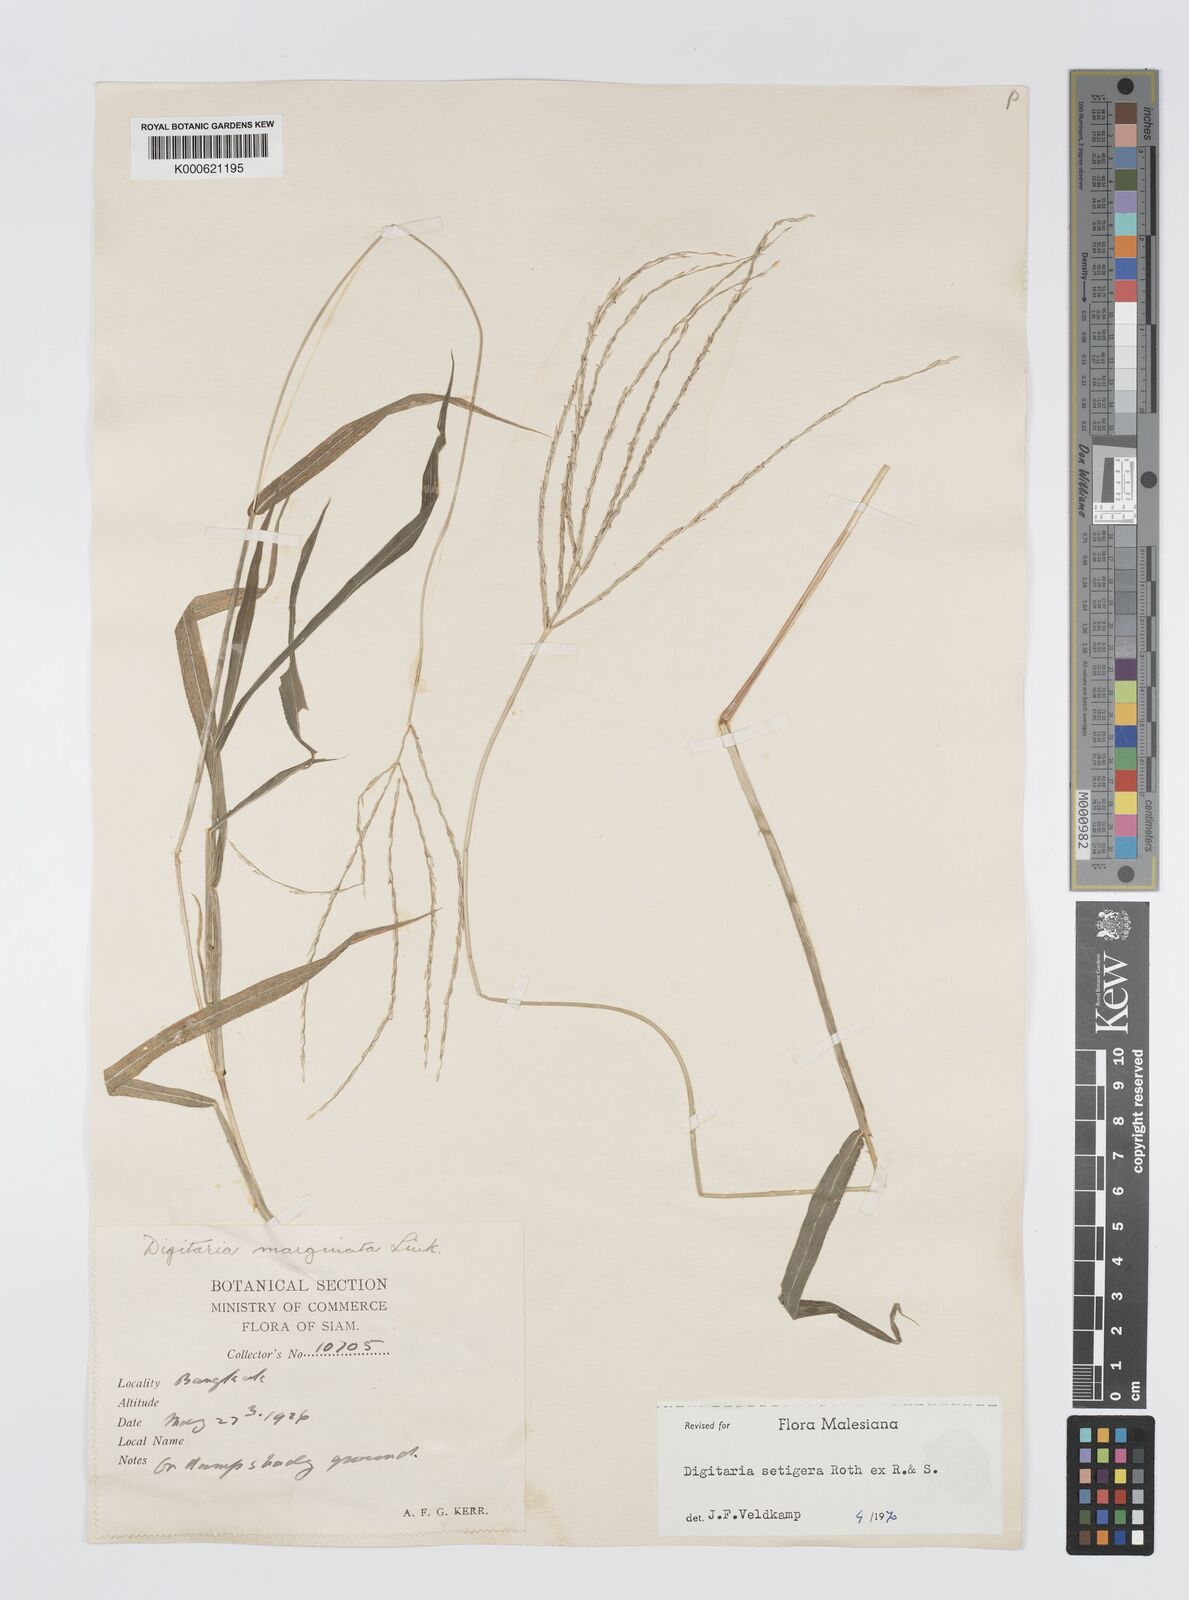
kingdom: Plantae
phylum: Tracheophyta
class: Liliopsida
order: Poales
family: Poaceae
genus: Digitaria
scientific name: Digitaria
